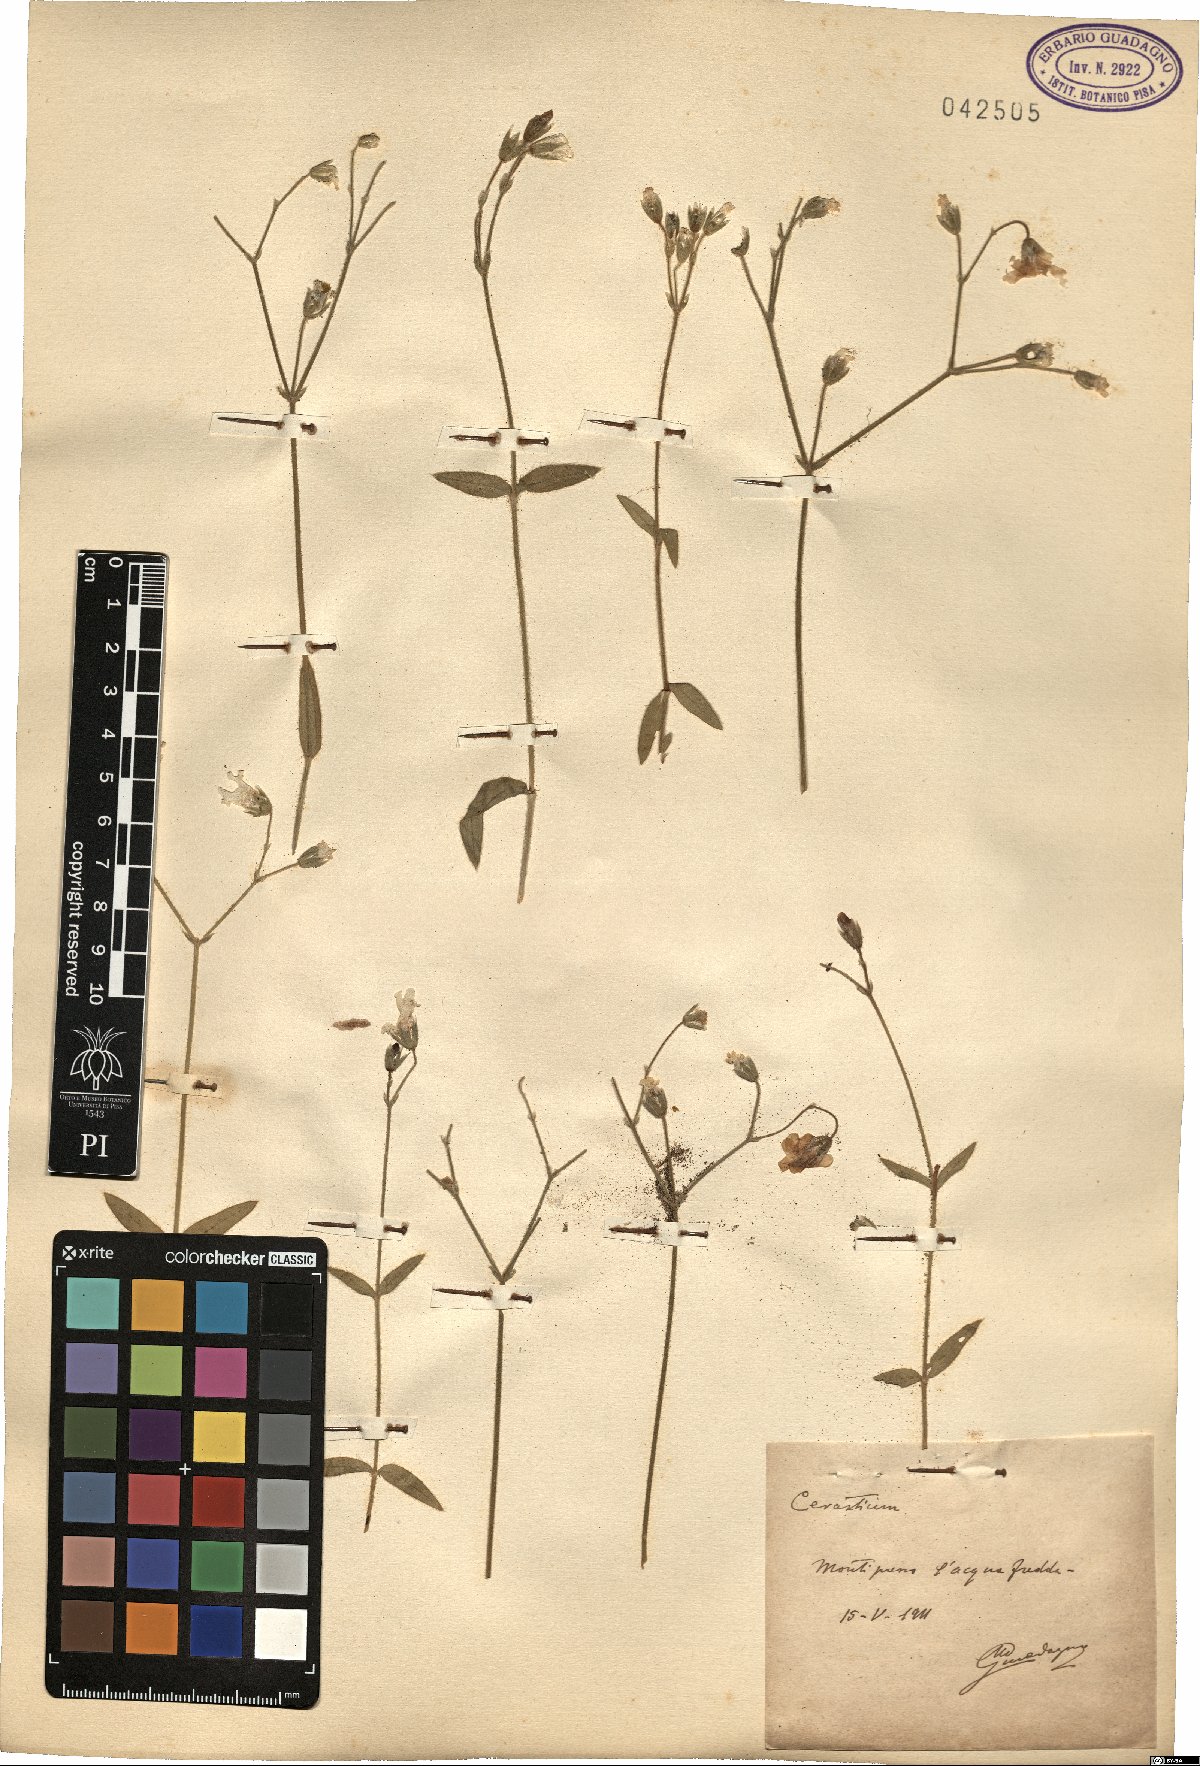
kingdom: Plantae
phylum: Tracheophyta
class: Magnoliopsida
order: Caryophyllales
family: Caryophyllaceae
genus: Cerastium
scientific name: Cerastium
